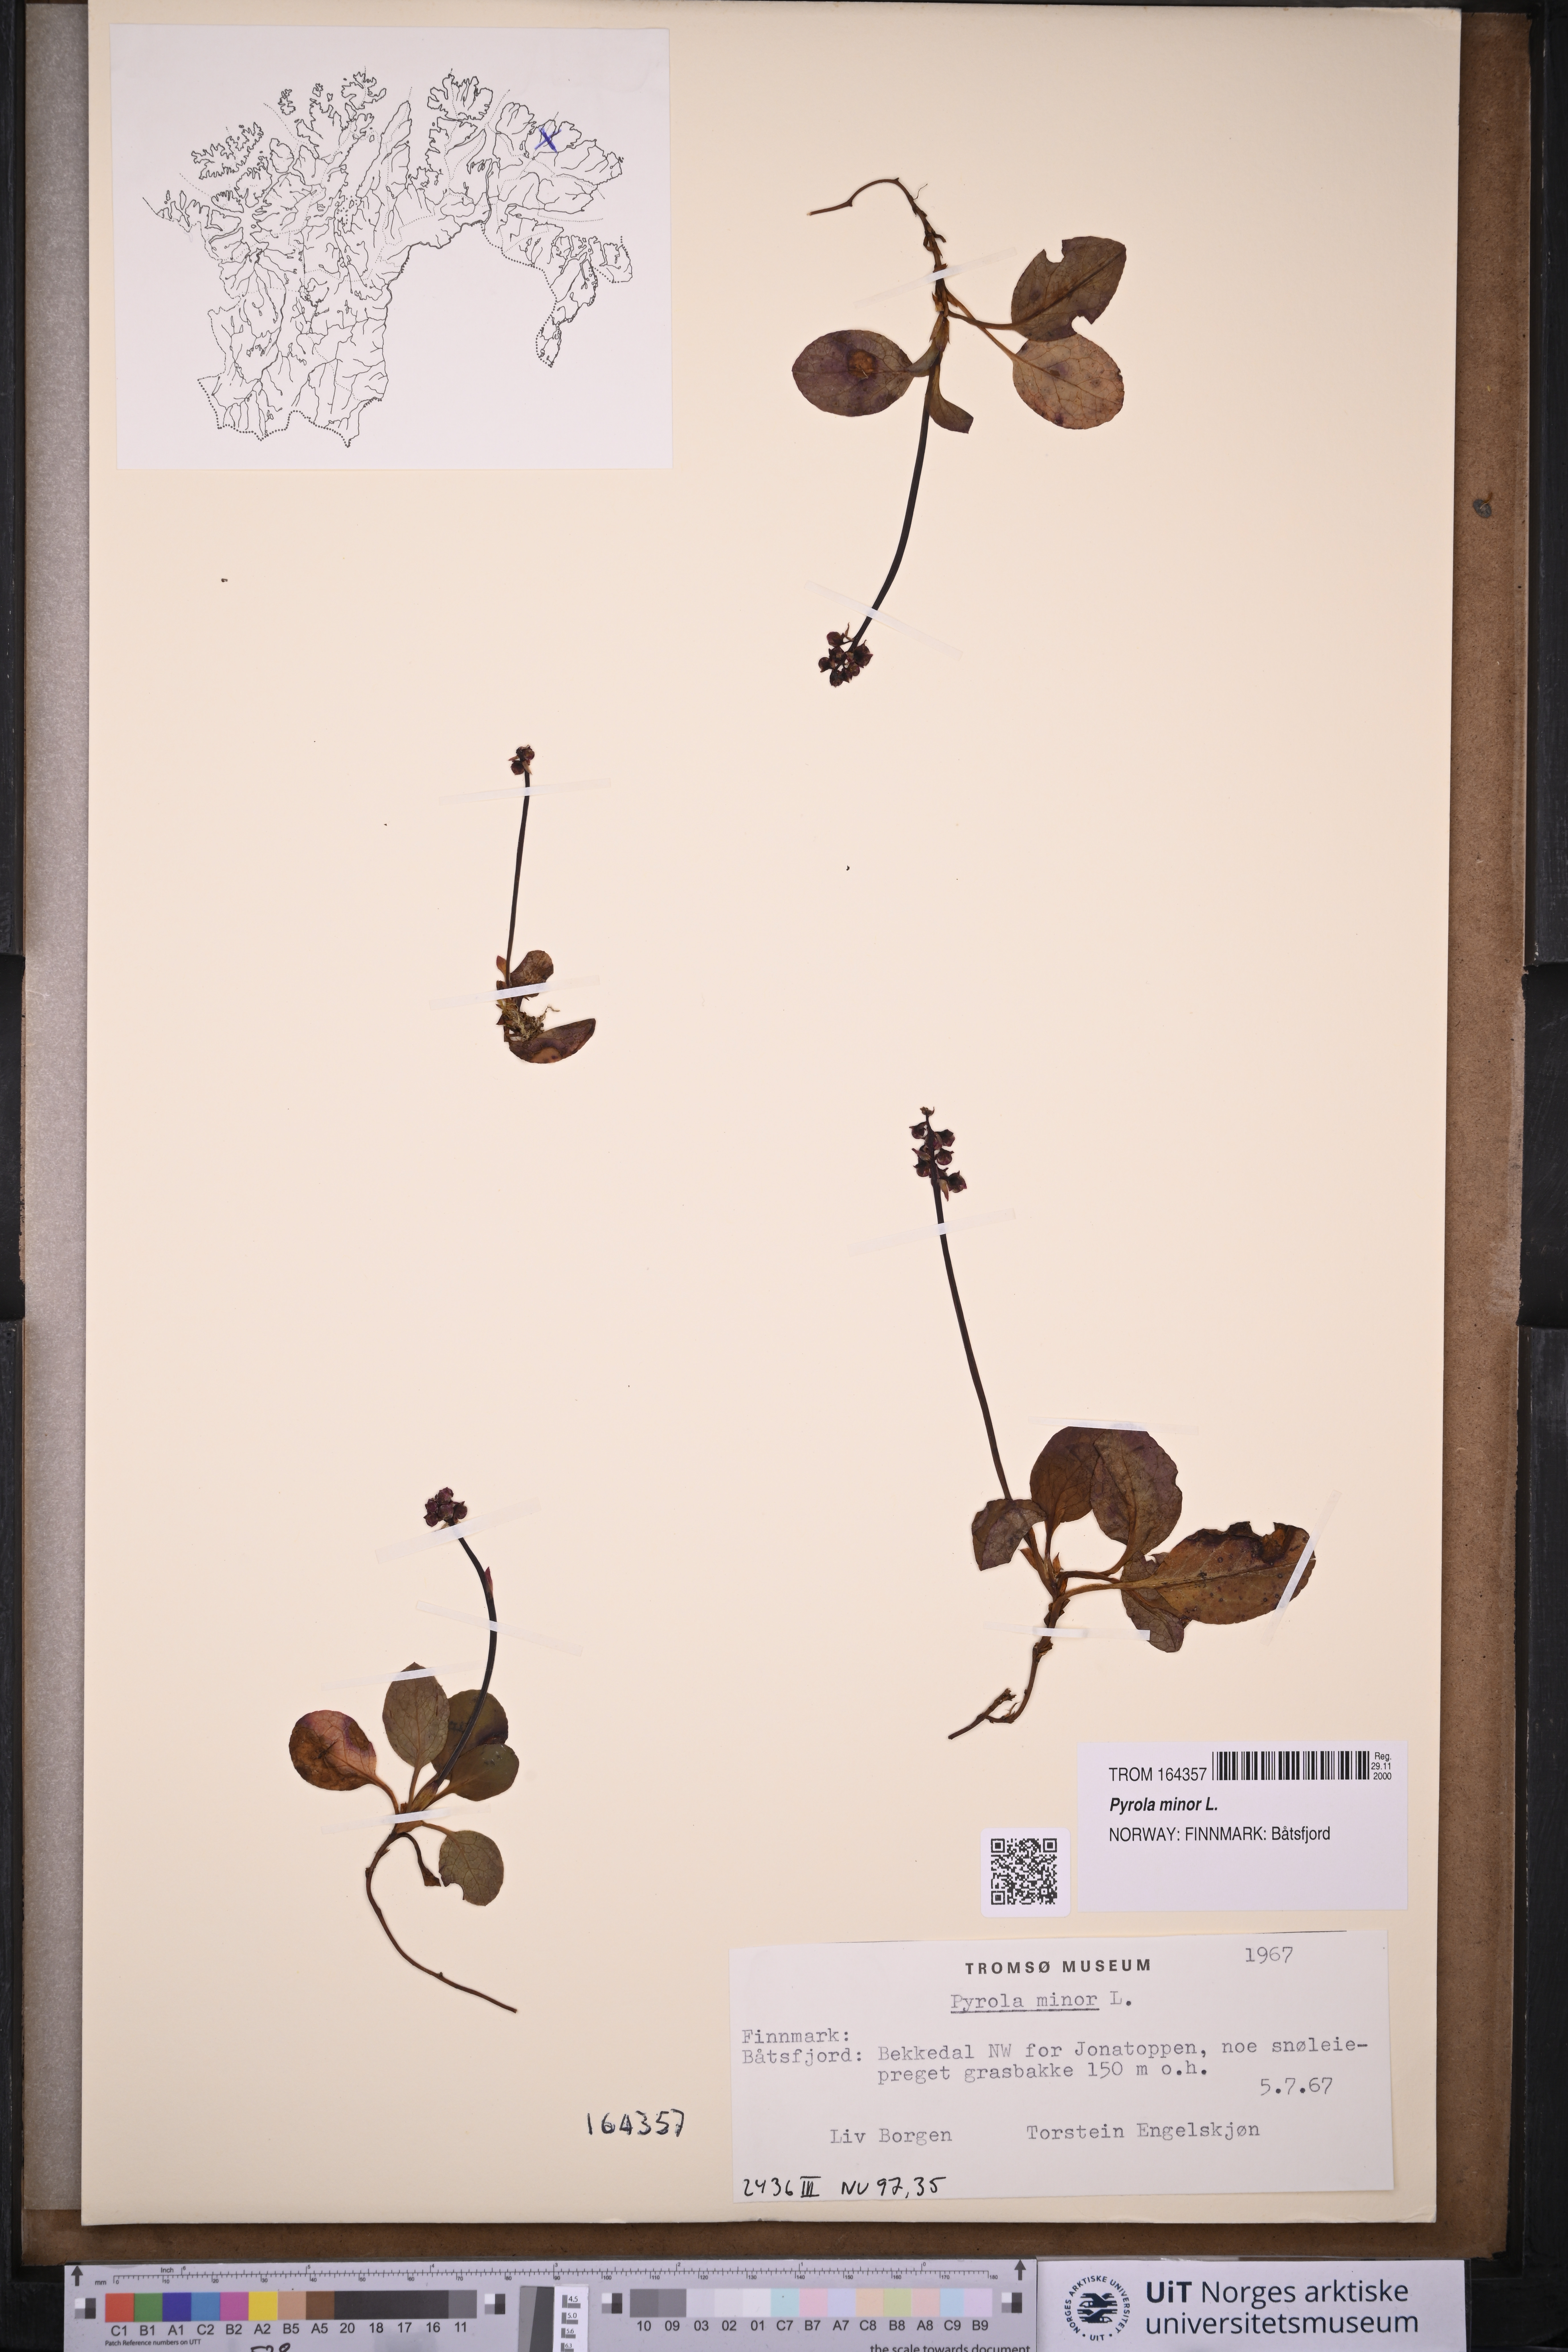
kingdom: Plantae
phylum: Tracheophyta
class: Magnoliopsida
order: Ericales
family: Ericaceae
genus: Pyrola
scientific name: Pyrola minor
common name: Common wintergreen
